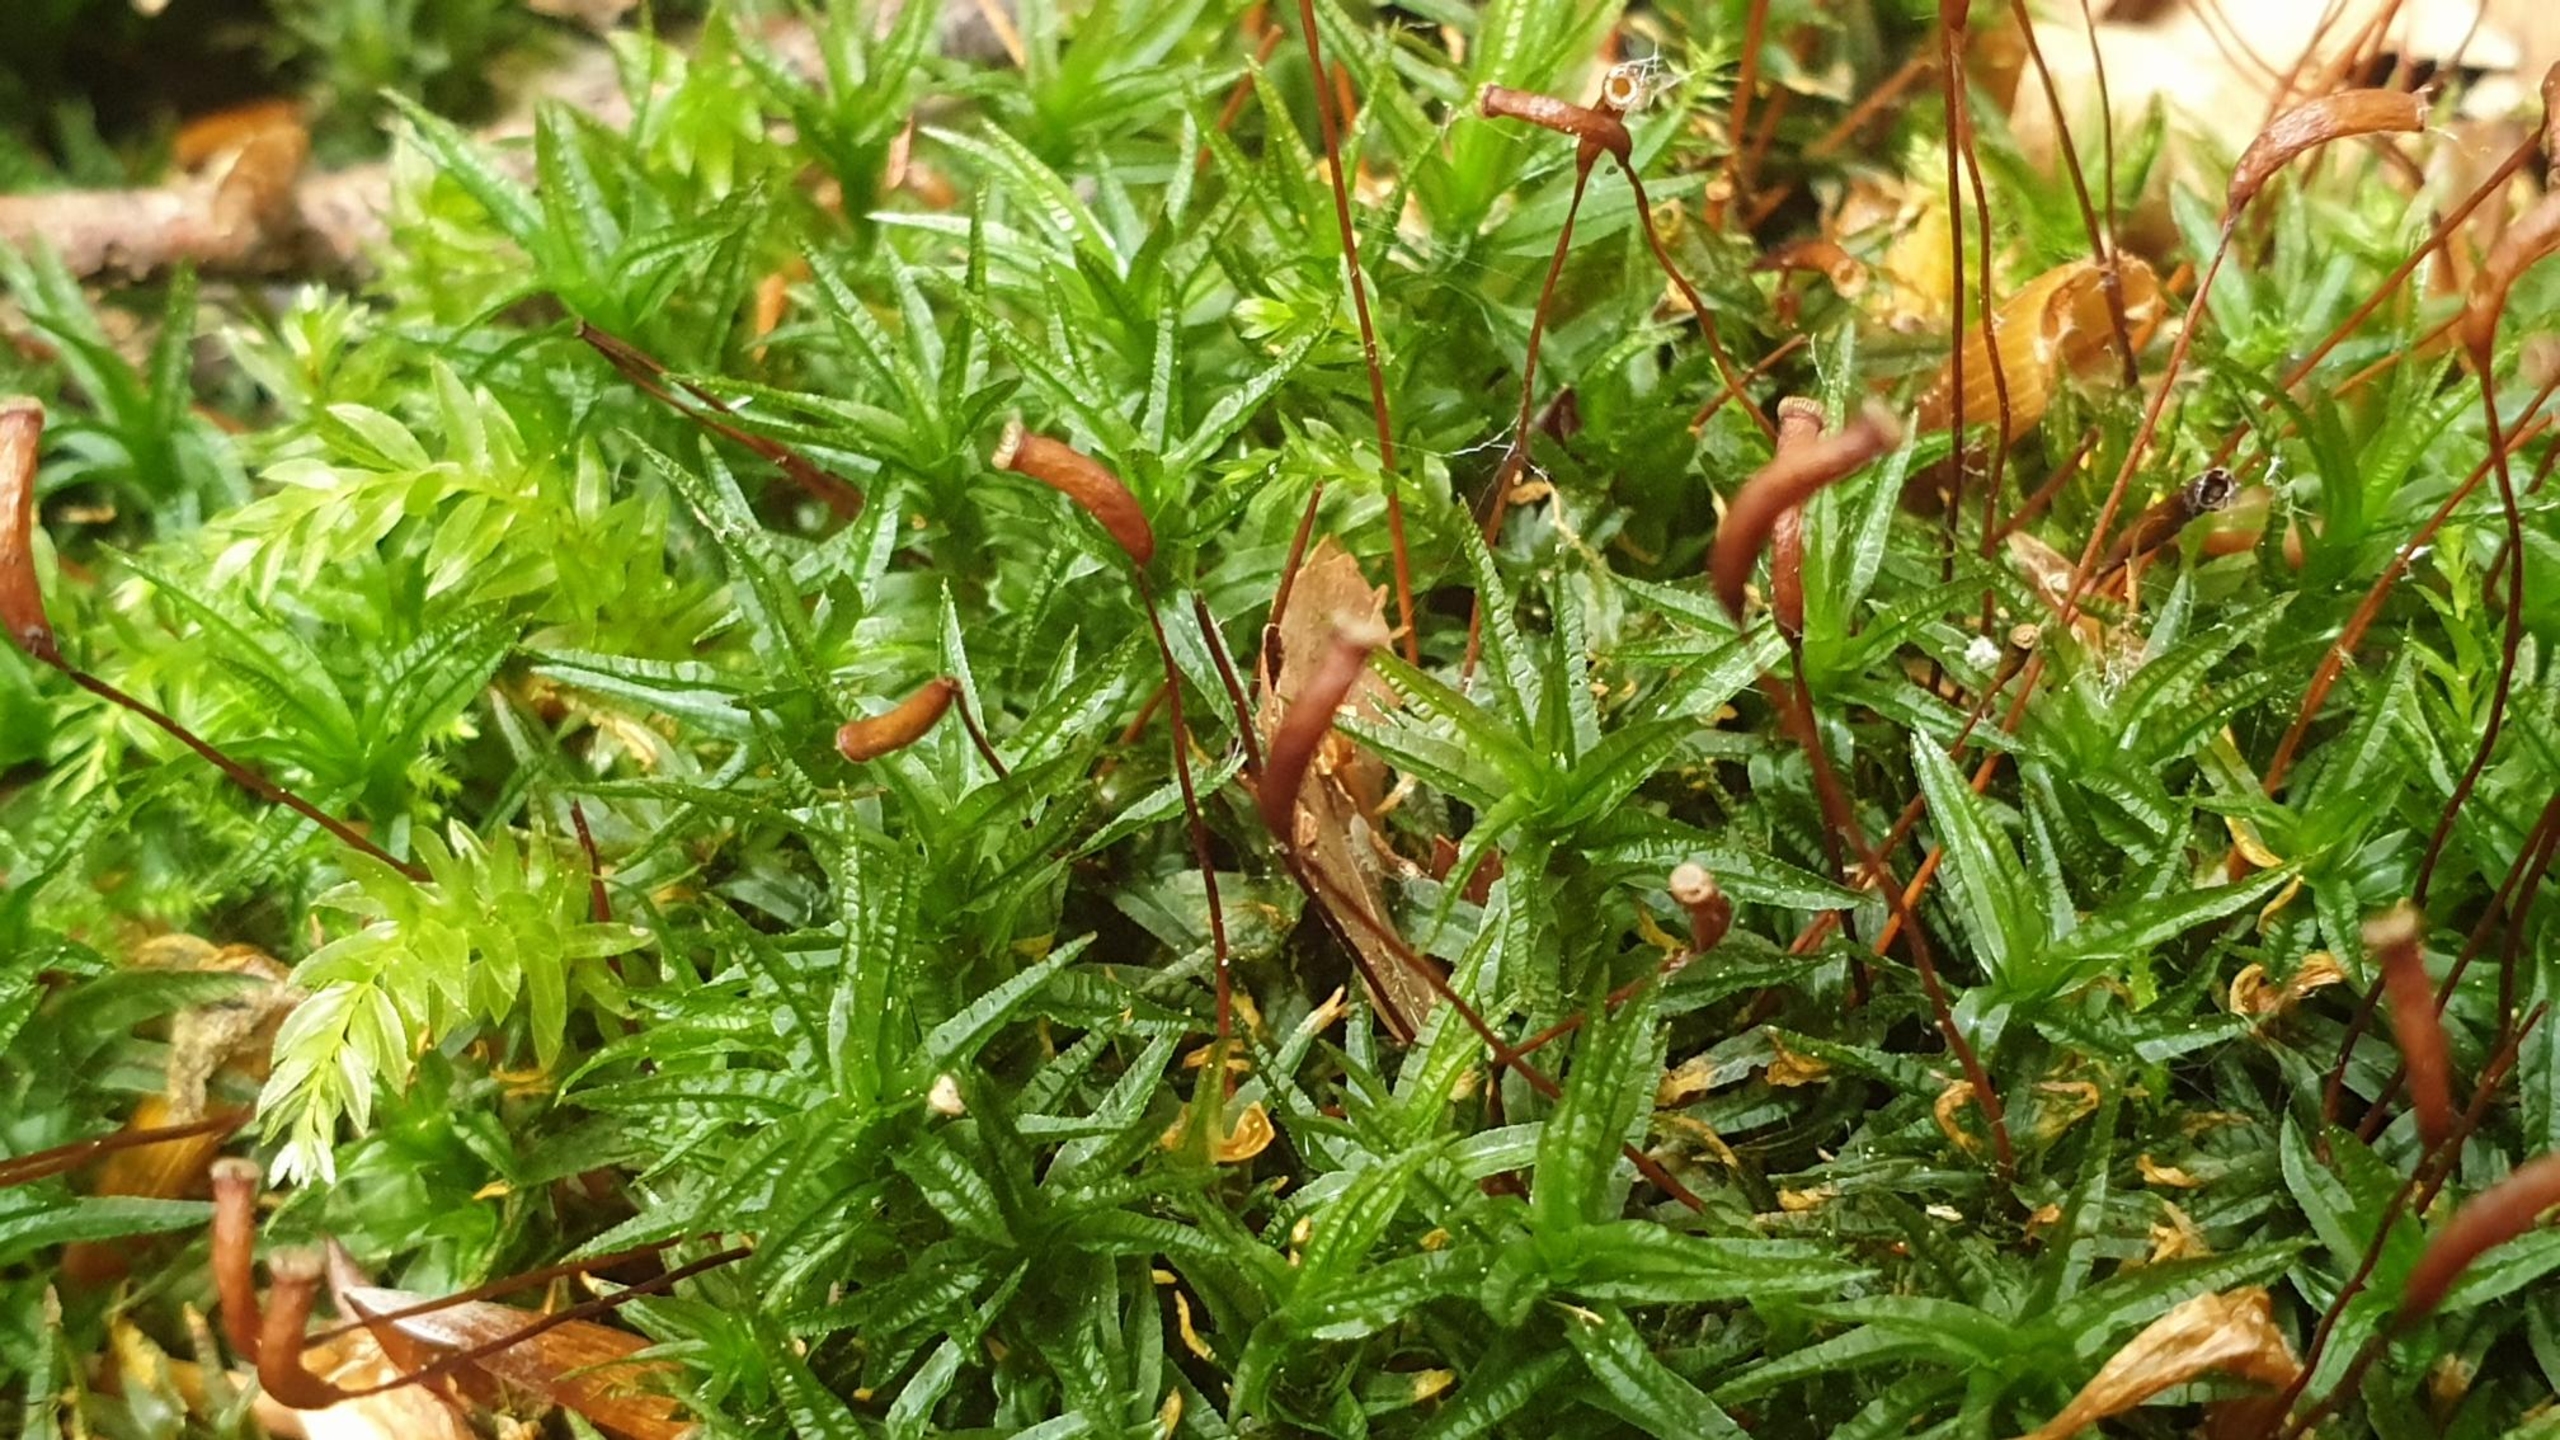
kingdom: Plantae
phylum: Bryophyta
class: Polytrichopsida
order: Polytrichales
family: Polytrichaceae
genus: Atrichum
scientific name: Atrichum undulatum
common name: Bølget katrinemos
